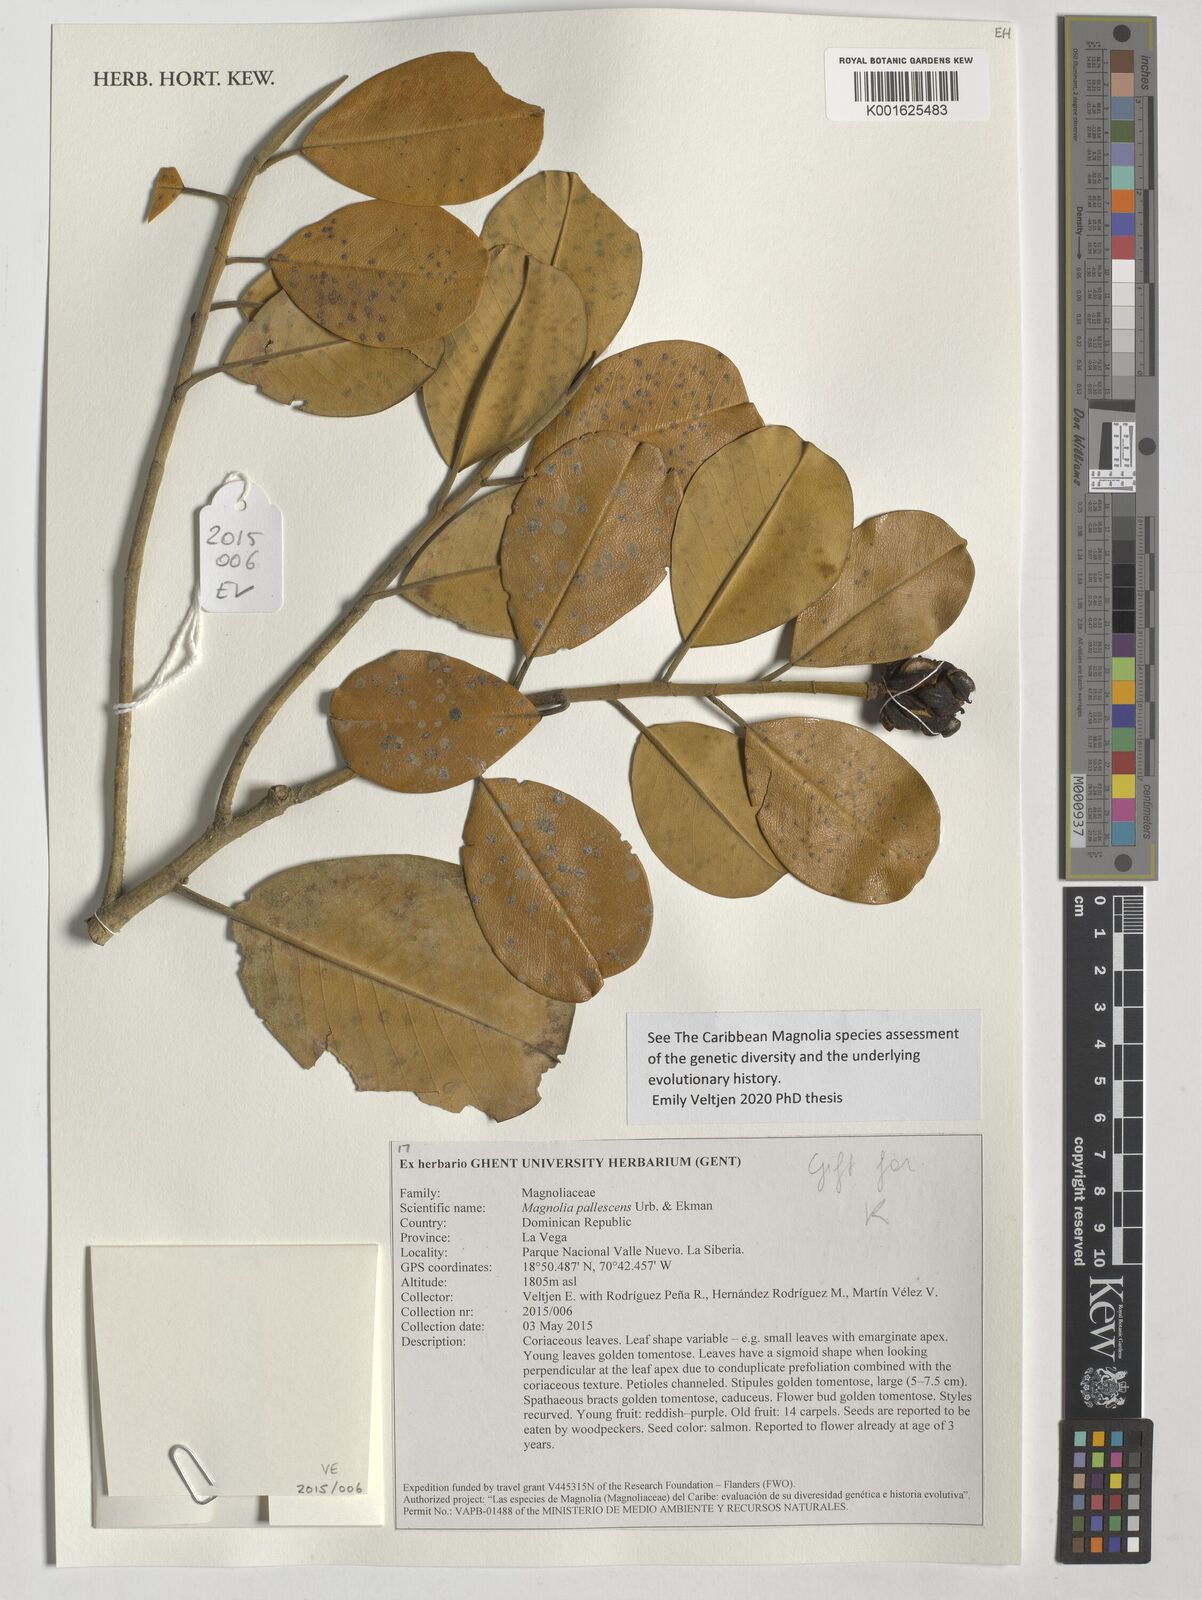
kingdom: Plantae
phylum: Tracheophyta
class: Magnoliopsida
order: Magnoliales
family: Magnoliaceae
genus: Magnolia
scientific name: Magnolia pallescens
